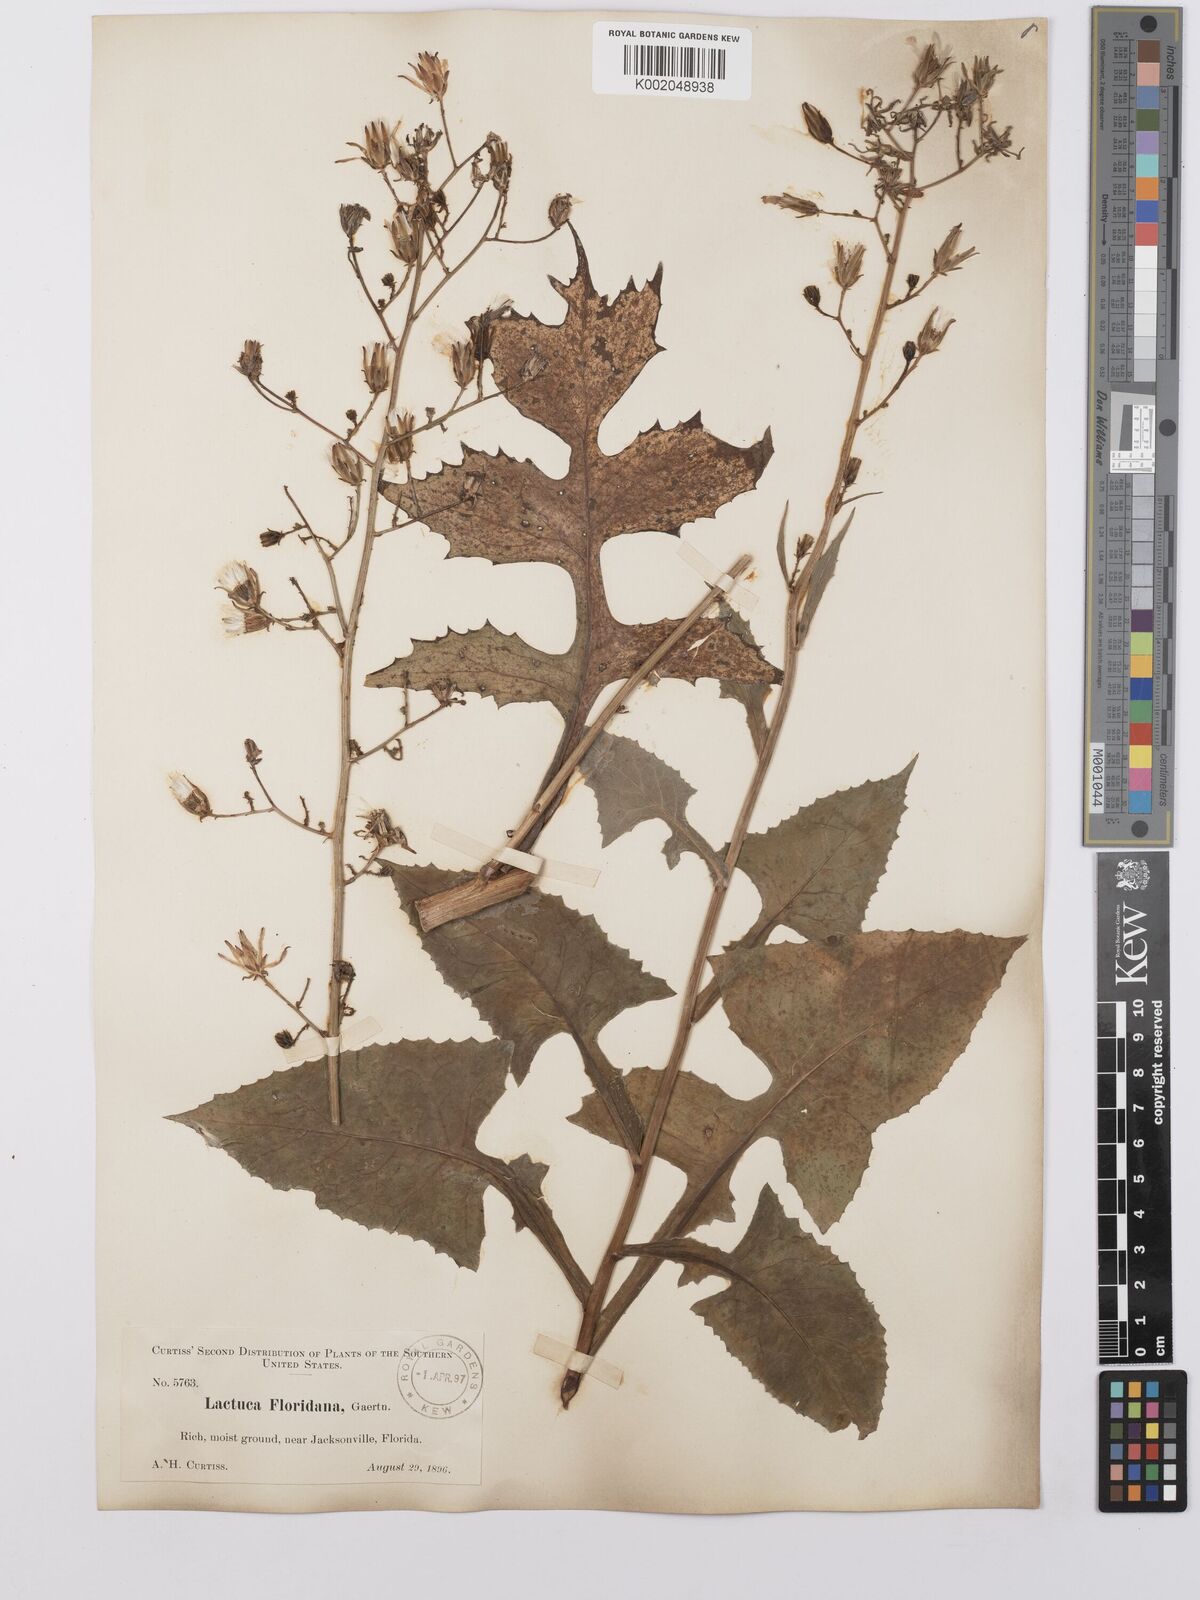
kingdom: Plantae
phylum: Tracheophyta
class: Magnoliopsida
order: Asterales
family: Asteraceae
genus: Lactuca
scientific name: Lactuca floridana
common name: Woodland lettuce
